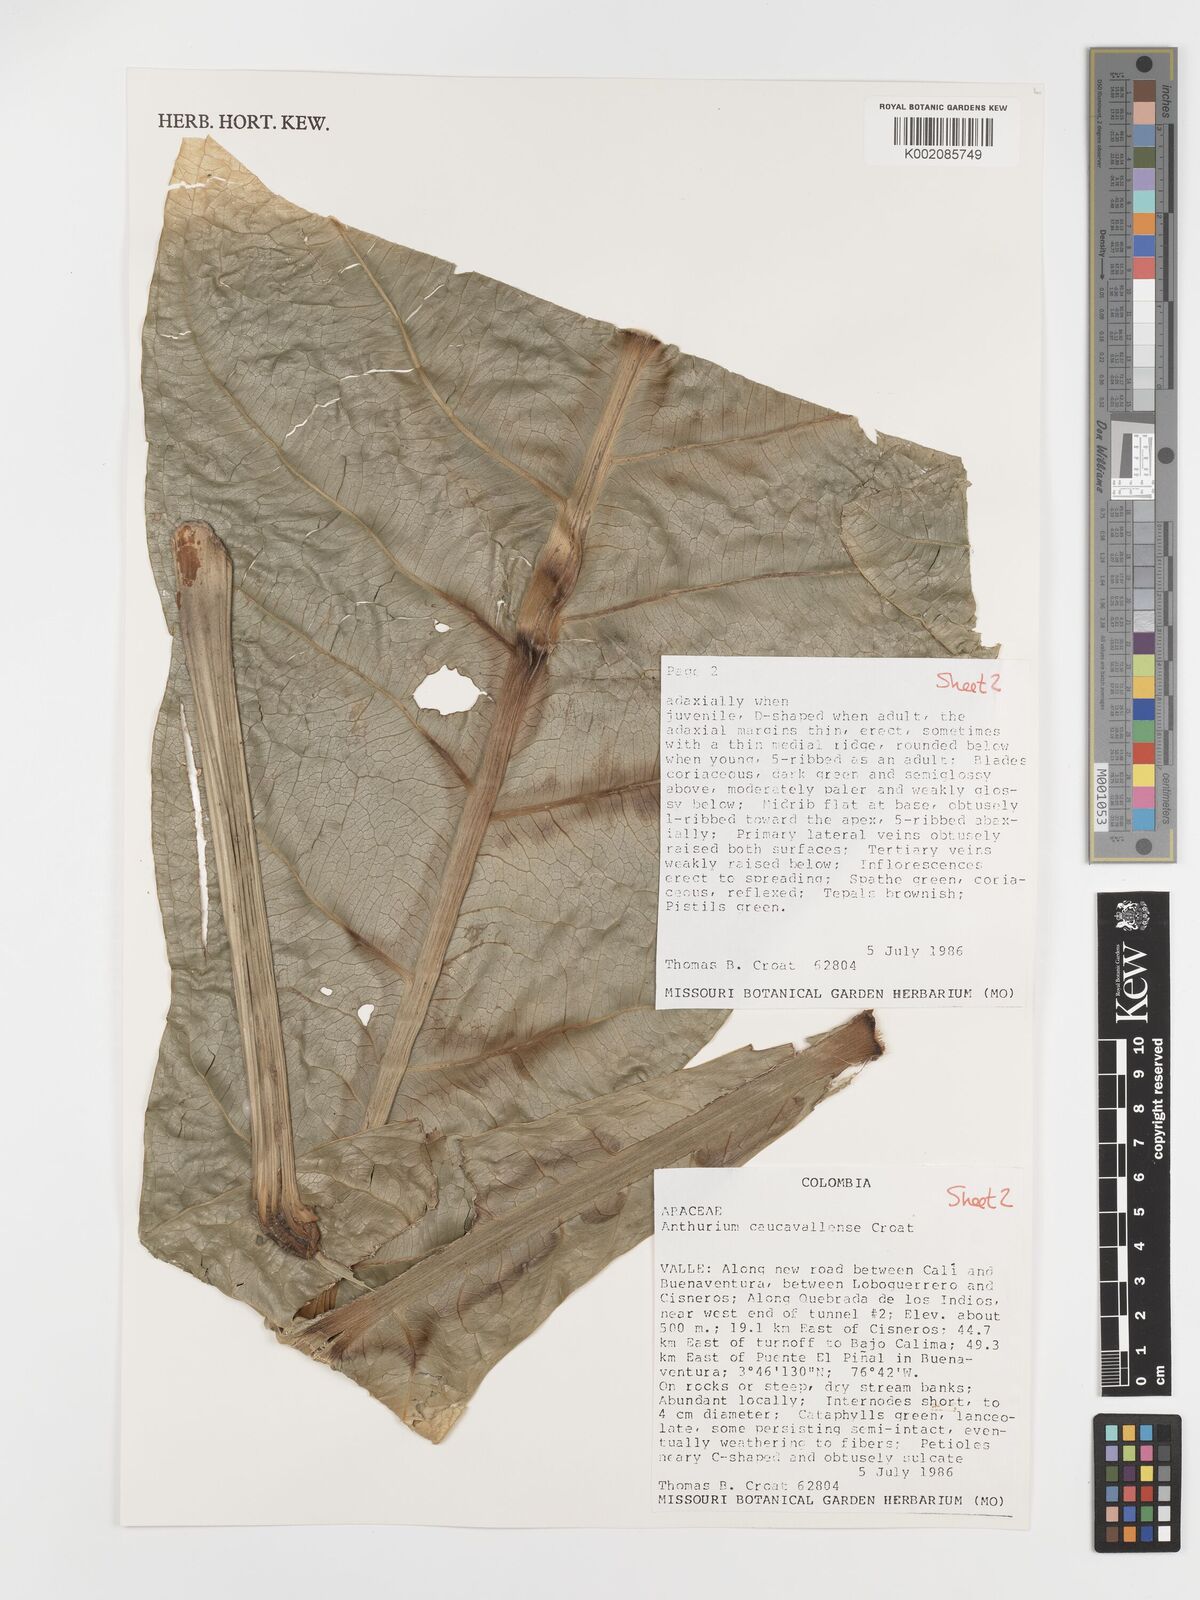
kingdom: Plantae
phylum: Tracheophyta
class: Liliopsida
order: Alismatales
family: Araceae
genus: Anthurium
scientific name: Anthurium caucavallense
